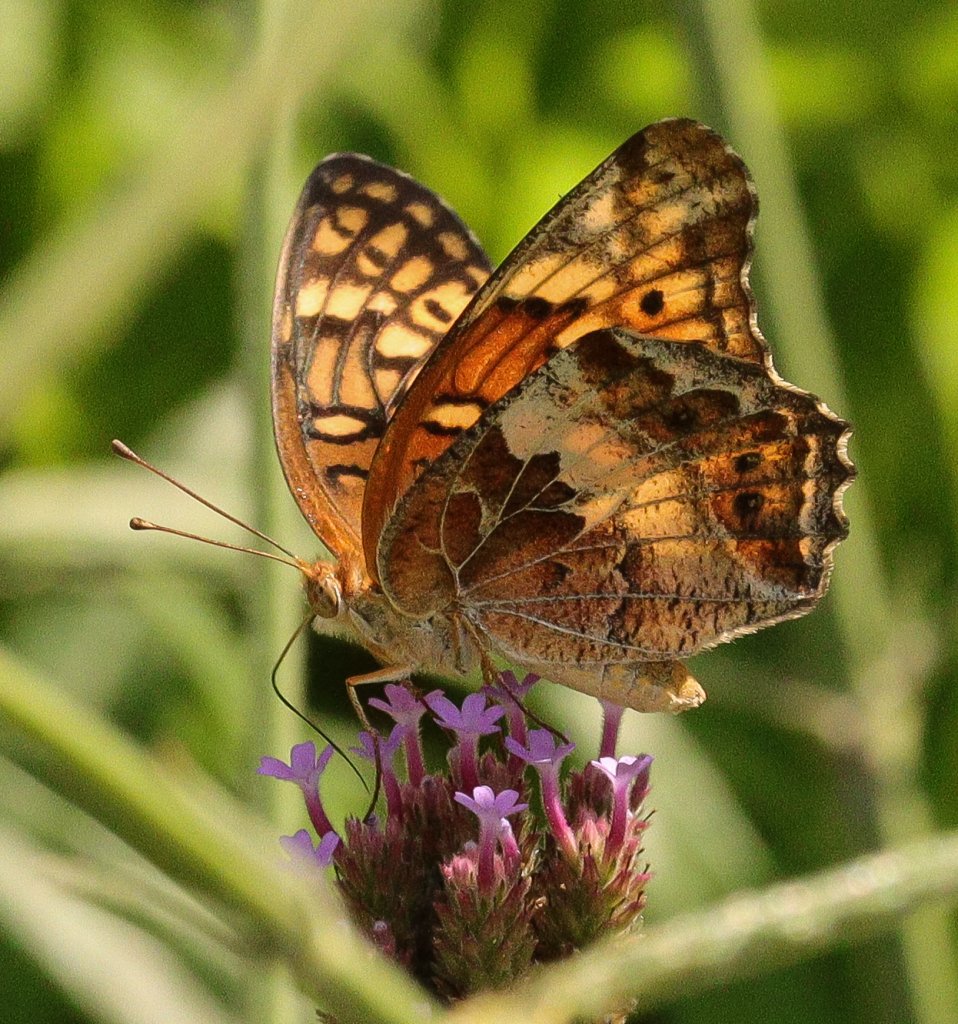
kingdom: Animalia
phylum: Arthropoda
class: Insecta
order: Lepidoptera
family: Nymphalidae
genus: Euptoieta
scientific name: Euptoieta claudia
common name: Variegated Fritillary
